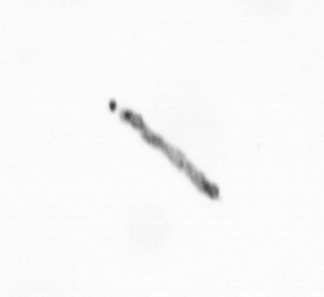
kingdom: Chromista
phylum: Ochrophyta
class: Bacillariophyceae
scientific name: Bacillariophyceae
